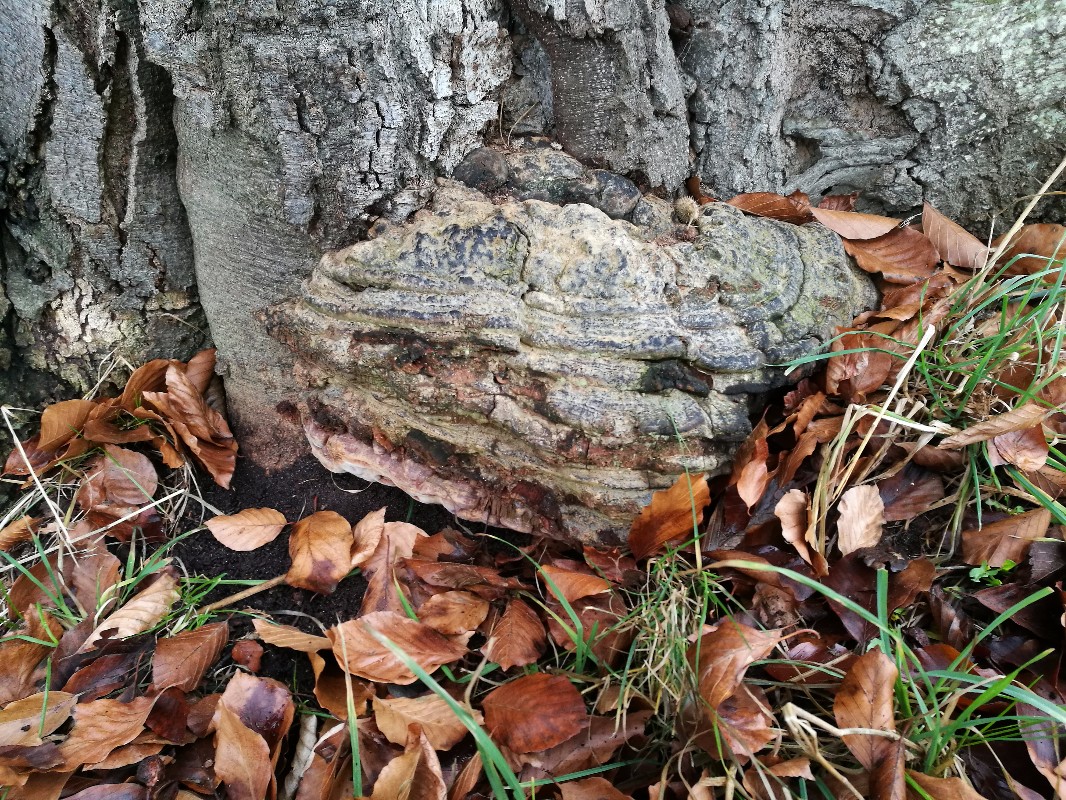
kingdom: Fungi
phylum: Basidiomycota
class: Agaricomycetes
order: Polyporales
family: Polyporaceae
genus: Ganoderma
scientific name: Ganoderma pfeifferi
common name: kobberrød lakporesvamp
